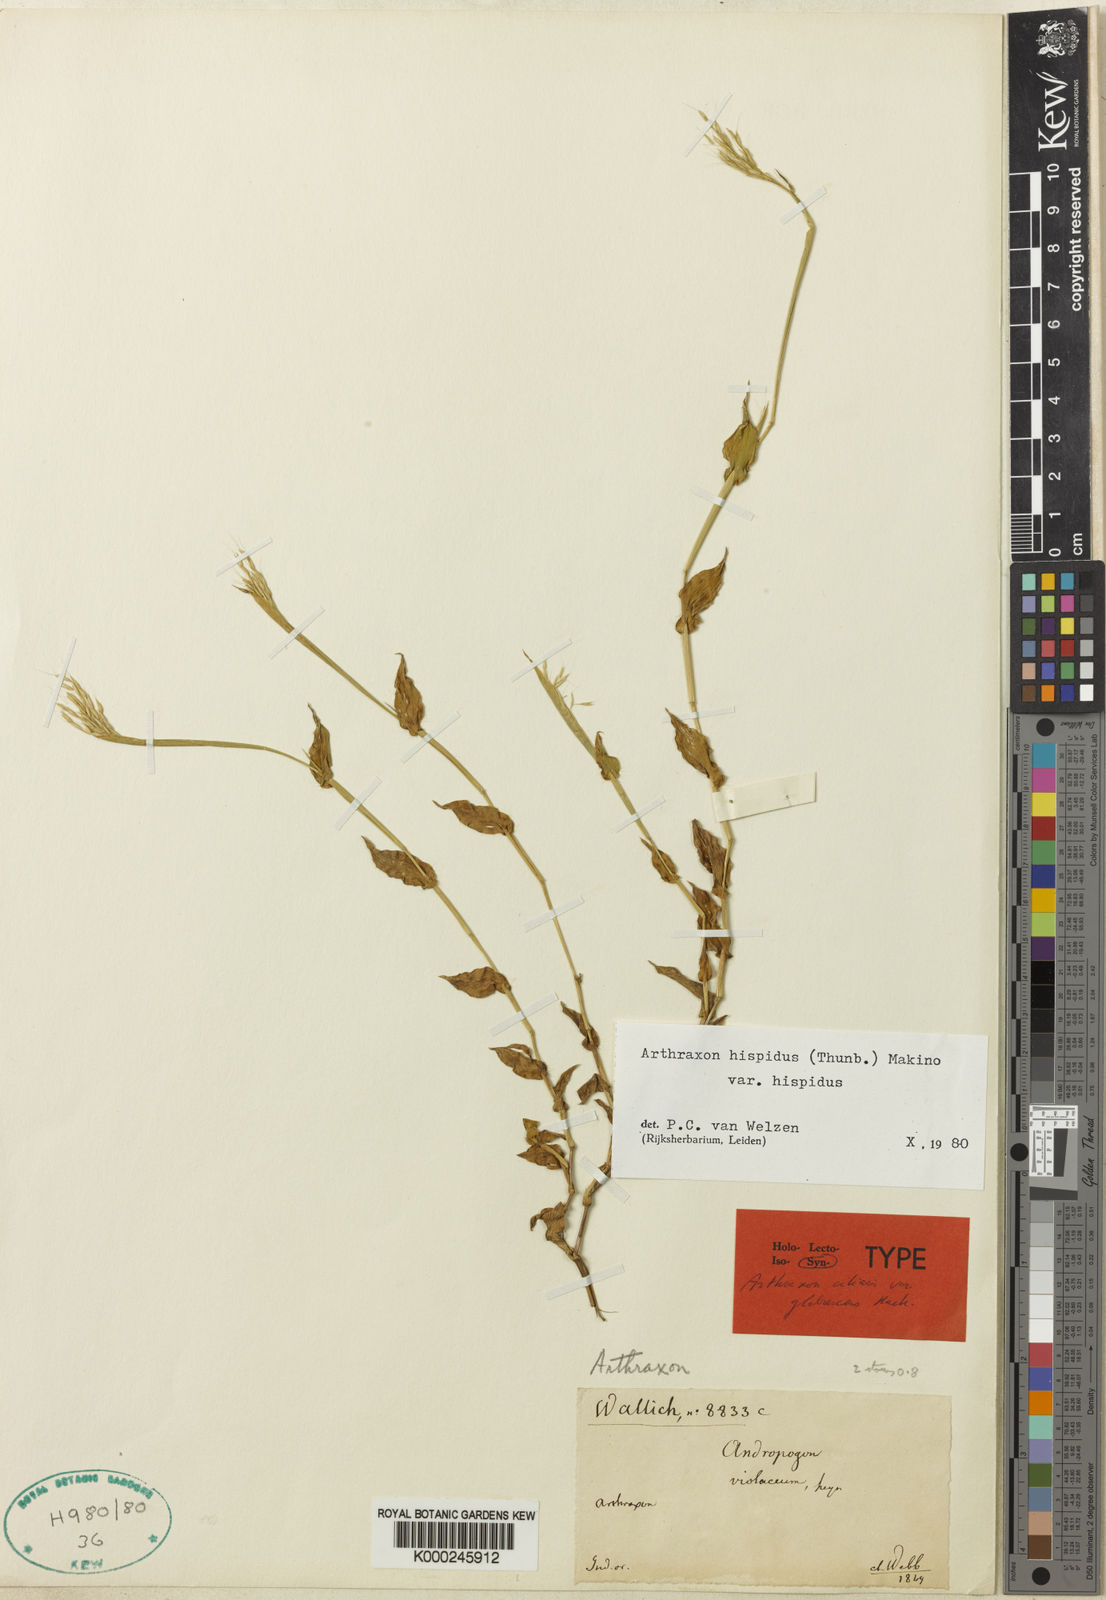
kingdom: Plantae
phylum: Tracheophyta
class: Liliopsida
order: Poales
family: Poaceae
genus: Arthraxon
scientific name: Arthraxon hispidus
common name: Small carpgrass
